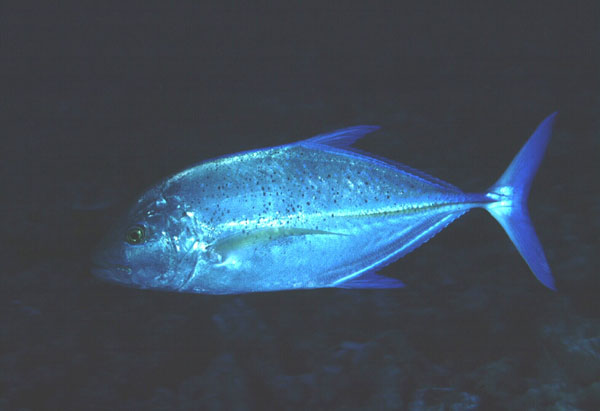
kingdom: Animalia
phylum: Chordata
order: Perciformes
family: Carangidae
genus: Caranx
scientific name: Caranx melampygus
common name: Bluefin trevally
